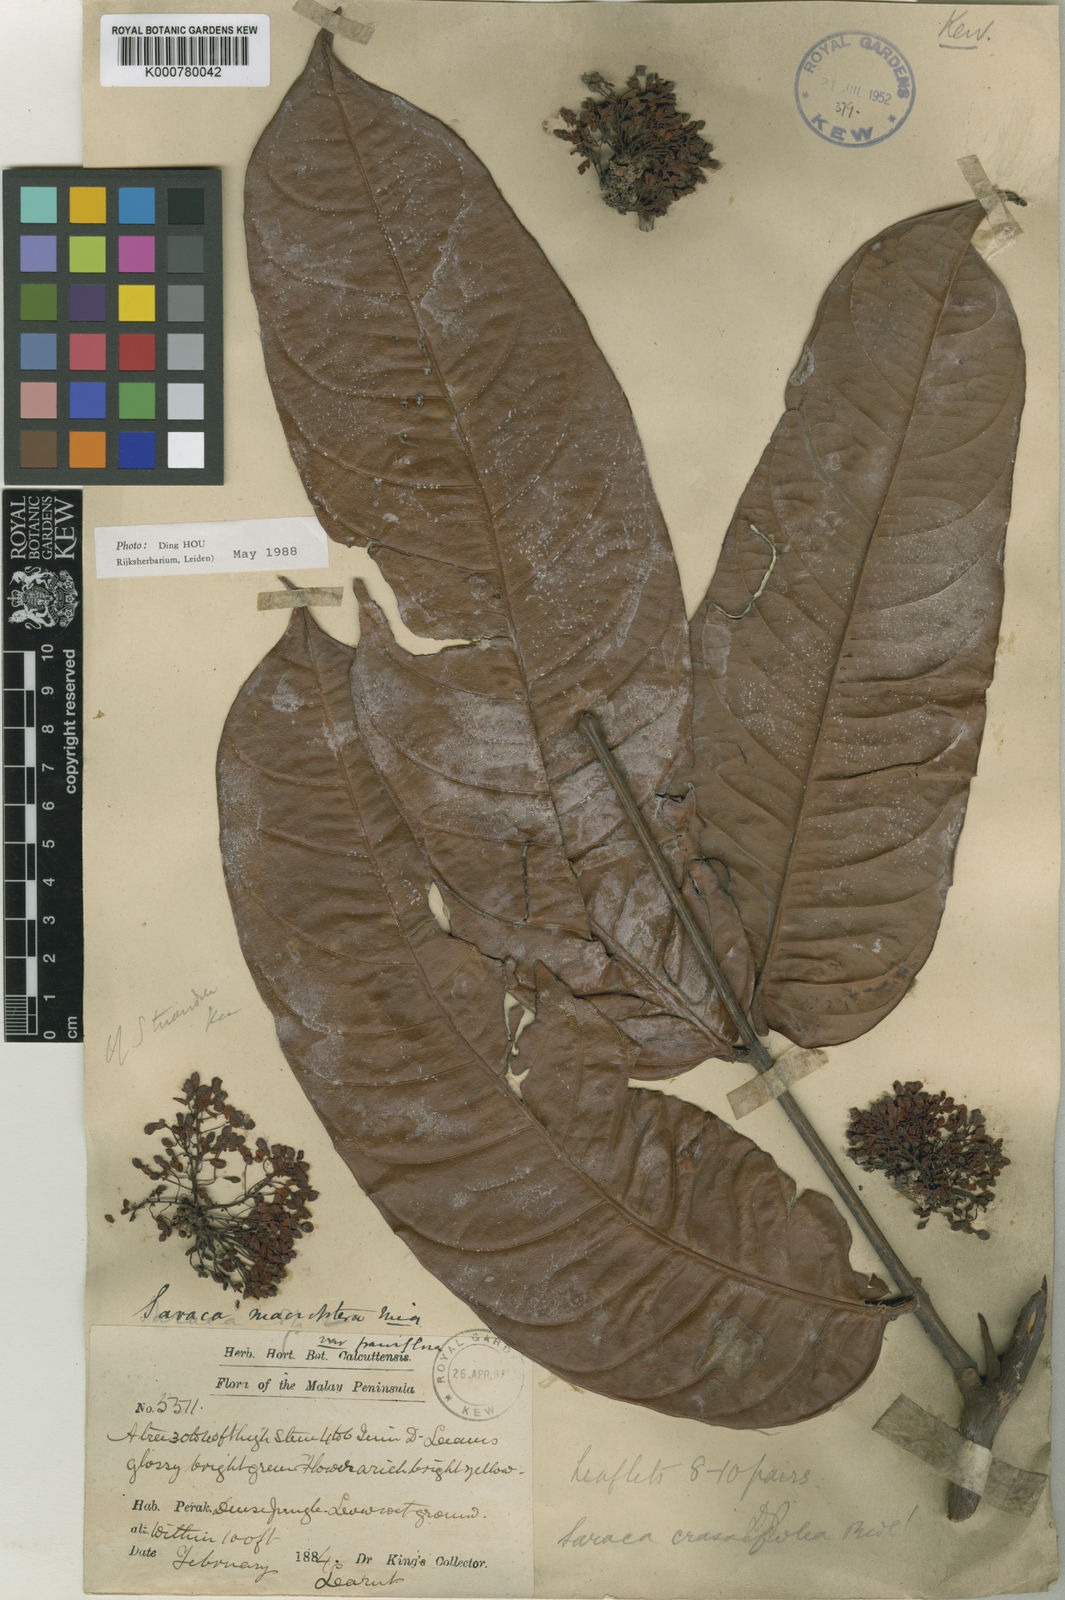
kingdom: Plantae
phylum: Tracheophyta
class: Magnoliopsida
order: Fabales
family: Fabaceae
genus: Saraca
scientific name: Saraca declinata
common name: Red saraca
